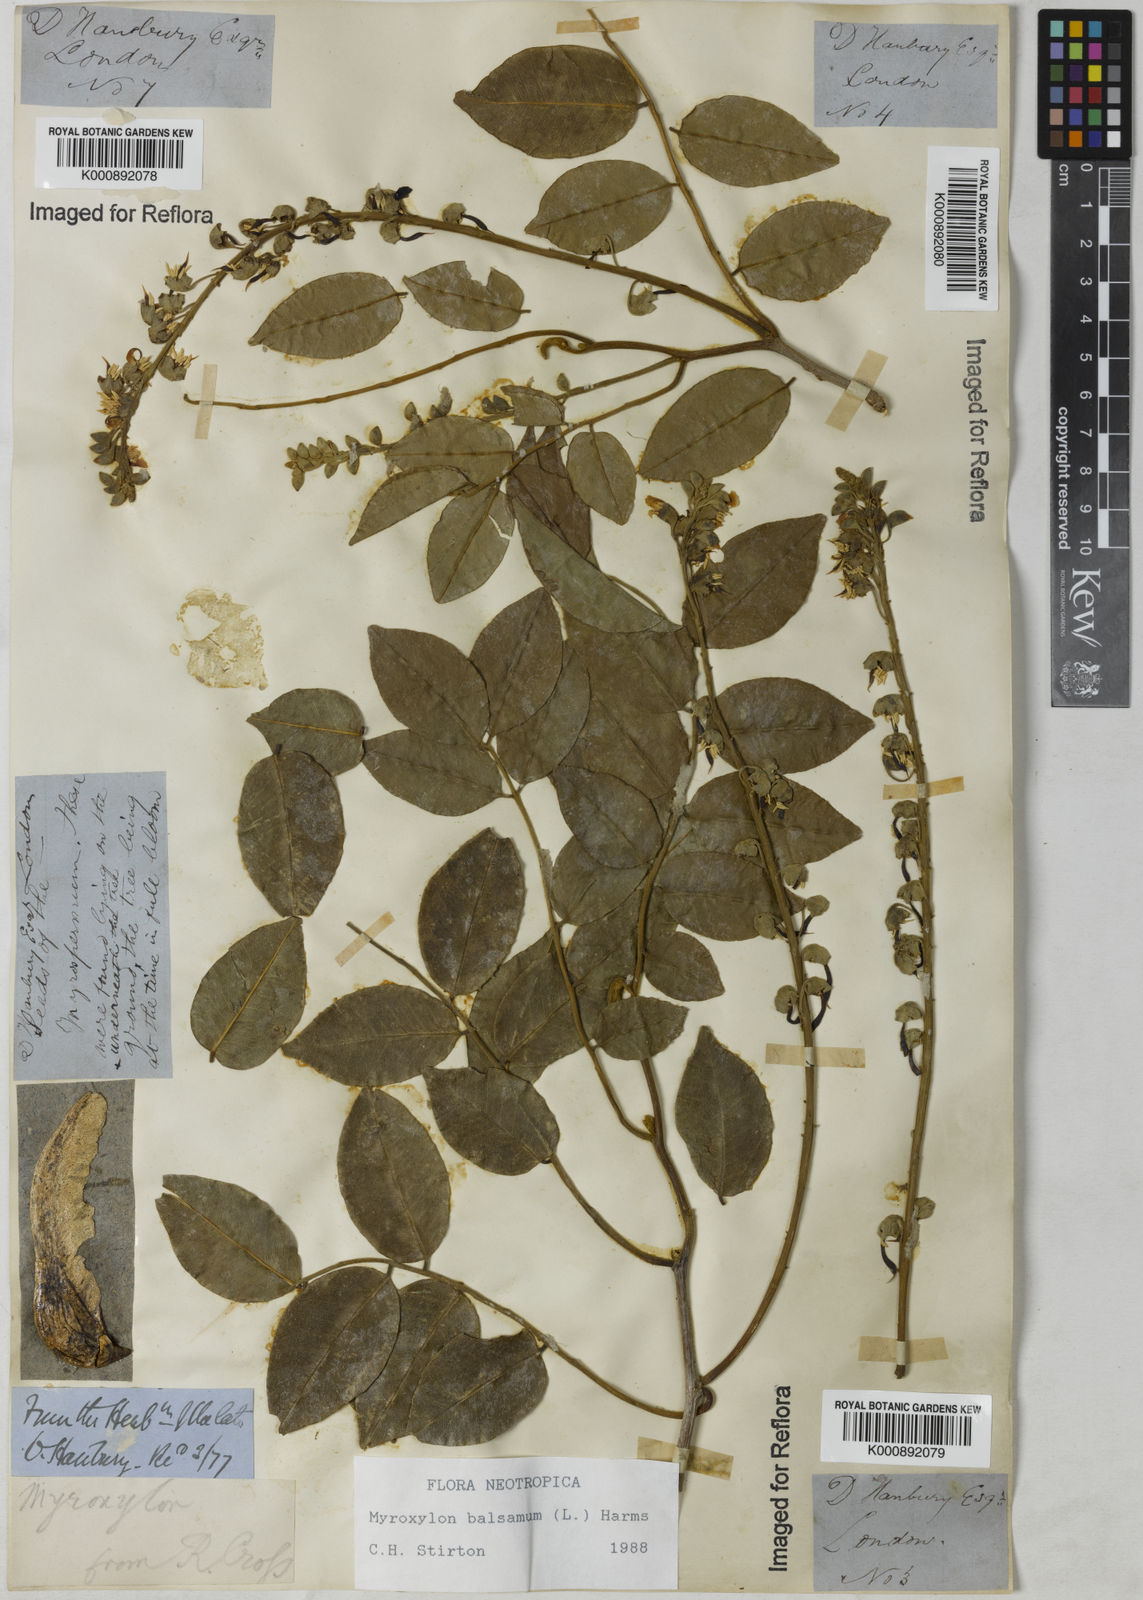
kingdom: Plantae
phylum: Tracheophyta
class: Magnoliopsida
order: Fabales
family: Fabaceae
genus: Myroxylon
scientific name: Myroxylon balsamum
